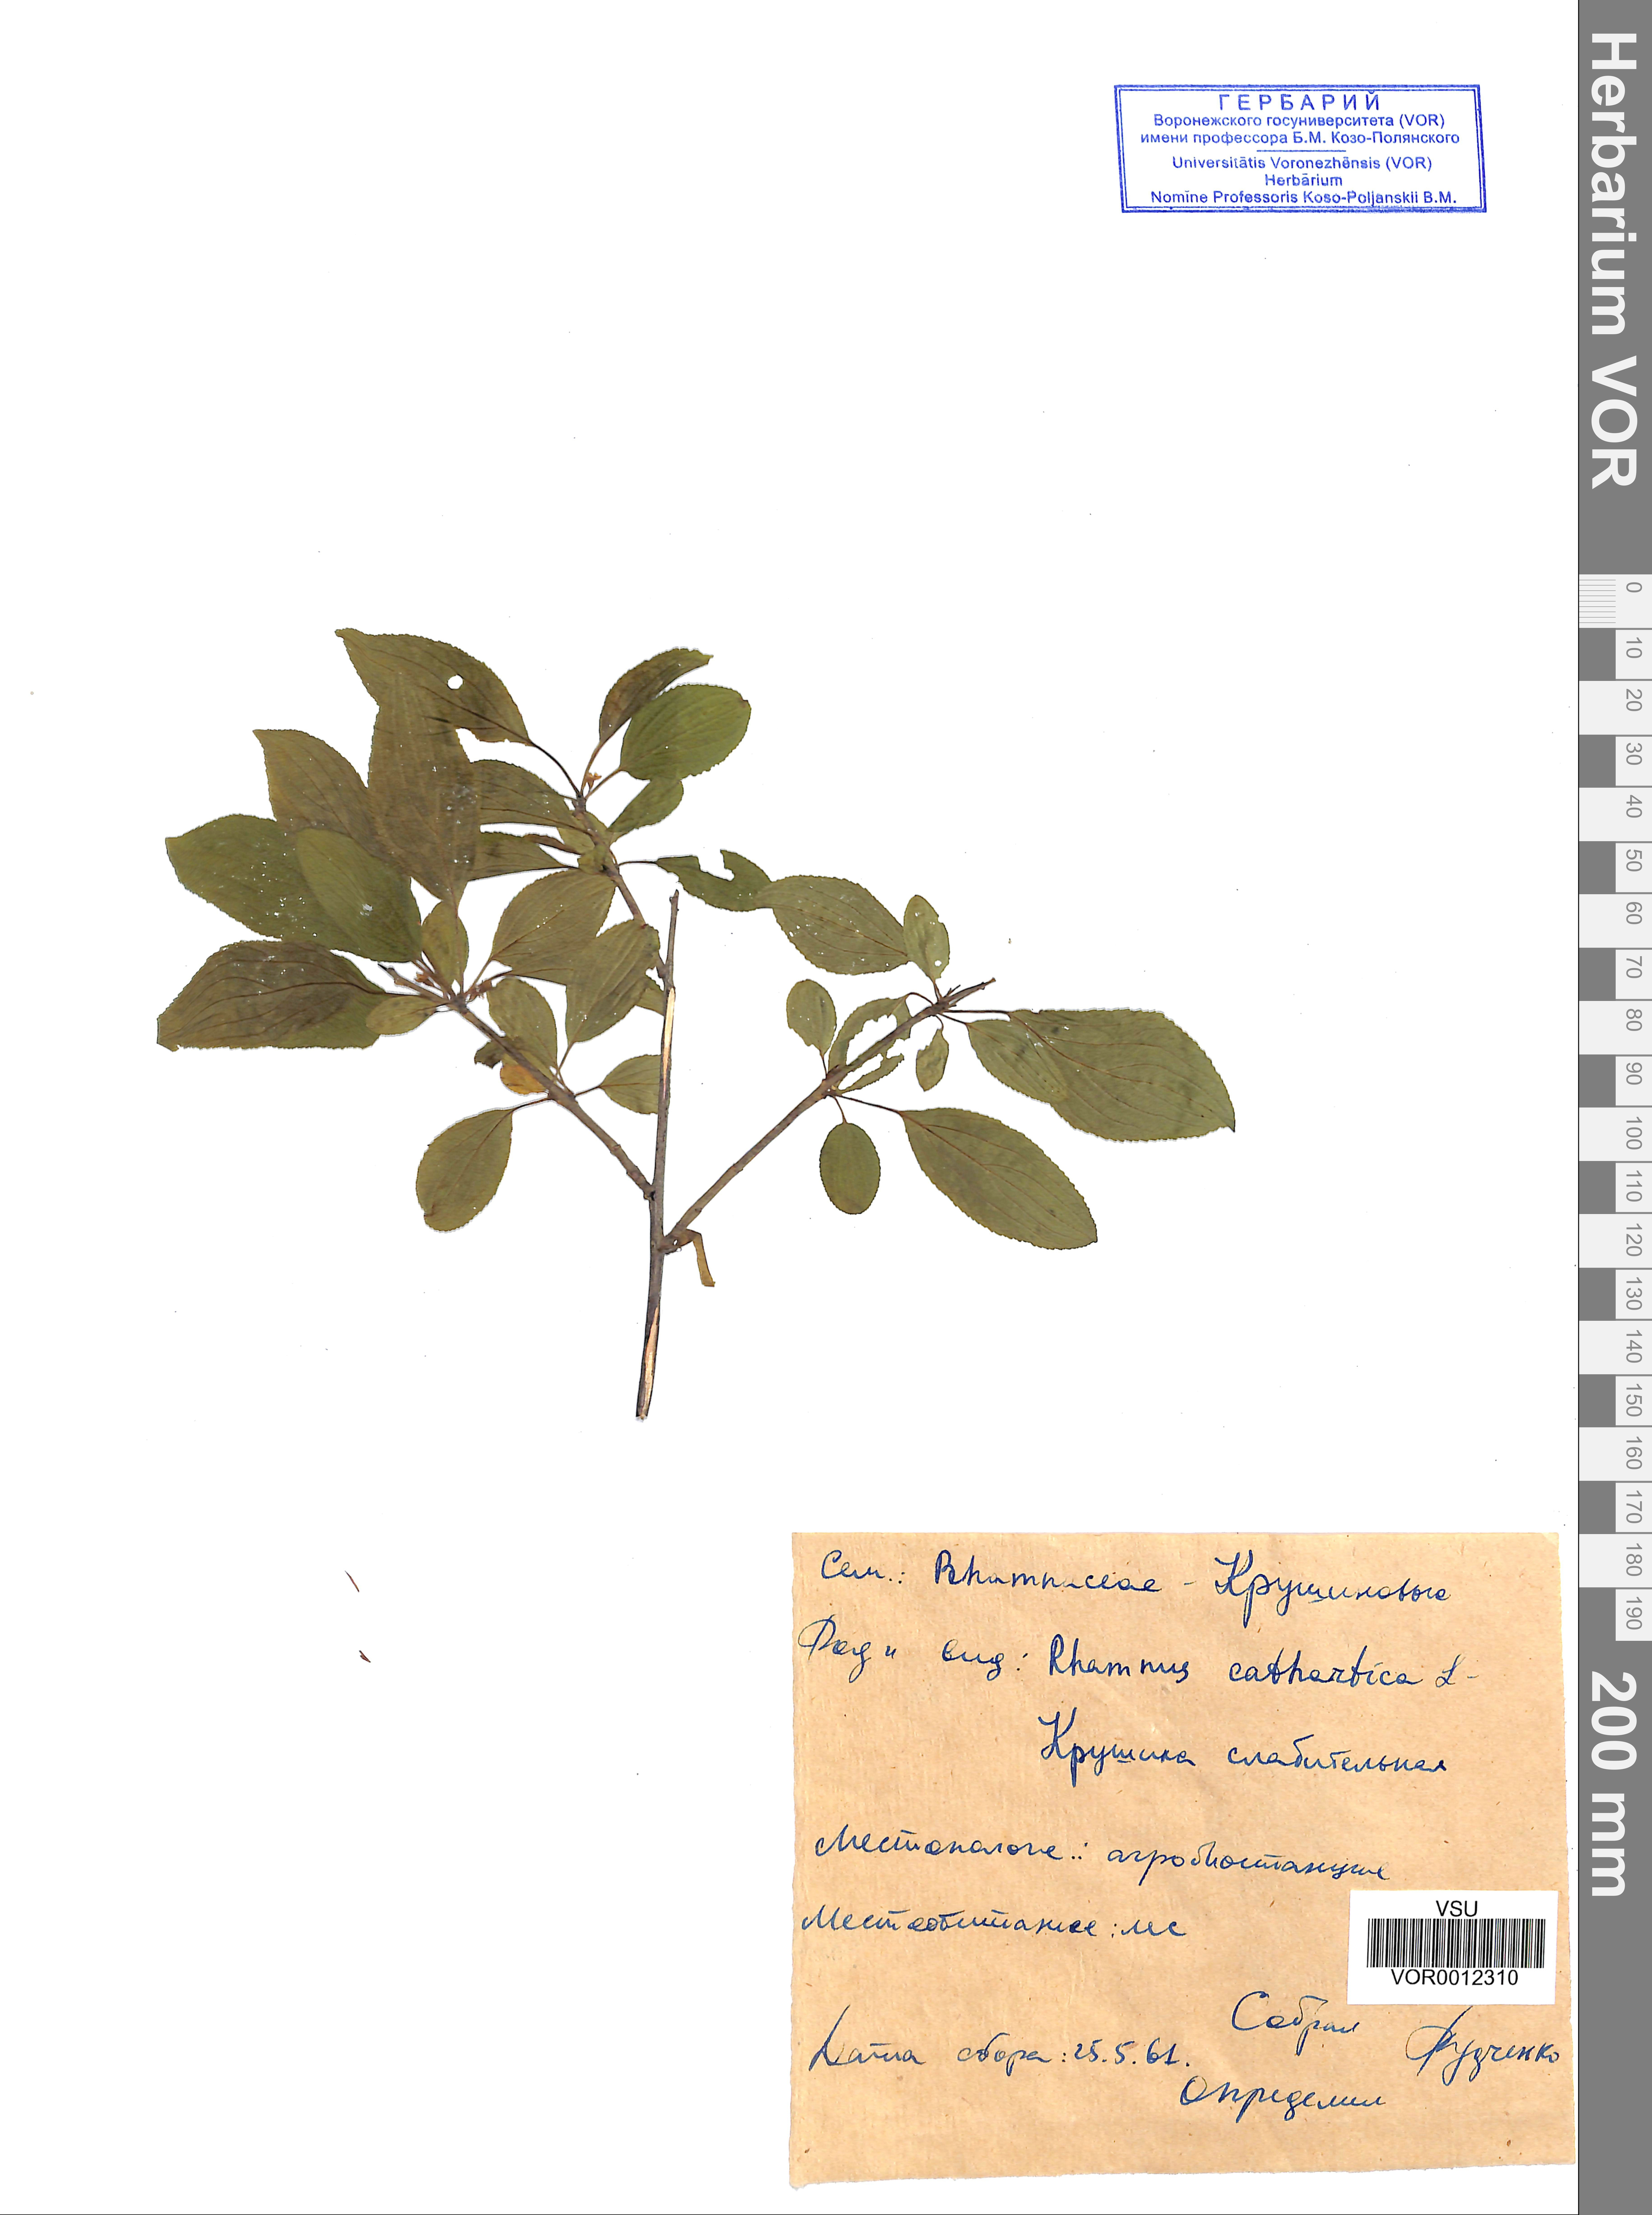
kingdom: Plantae
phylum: Tracheophyta
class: Magnoliopsida
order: Rosales
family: Rhamnaceae
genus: Rhamnus
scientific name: Rhamnus cathartica
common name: Common buckthorn
